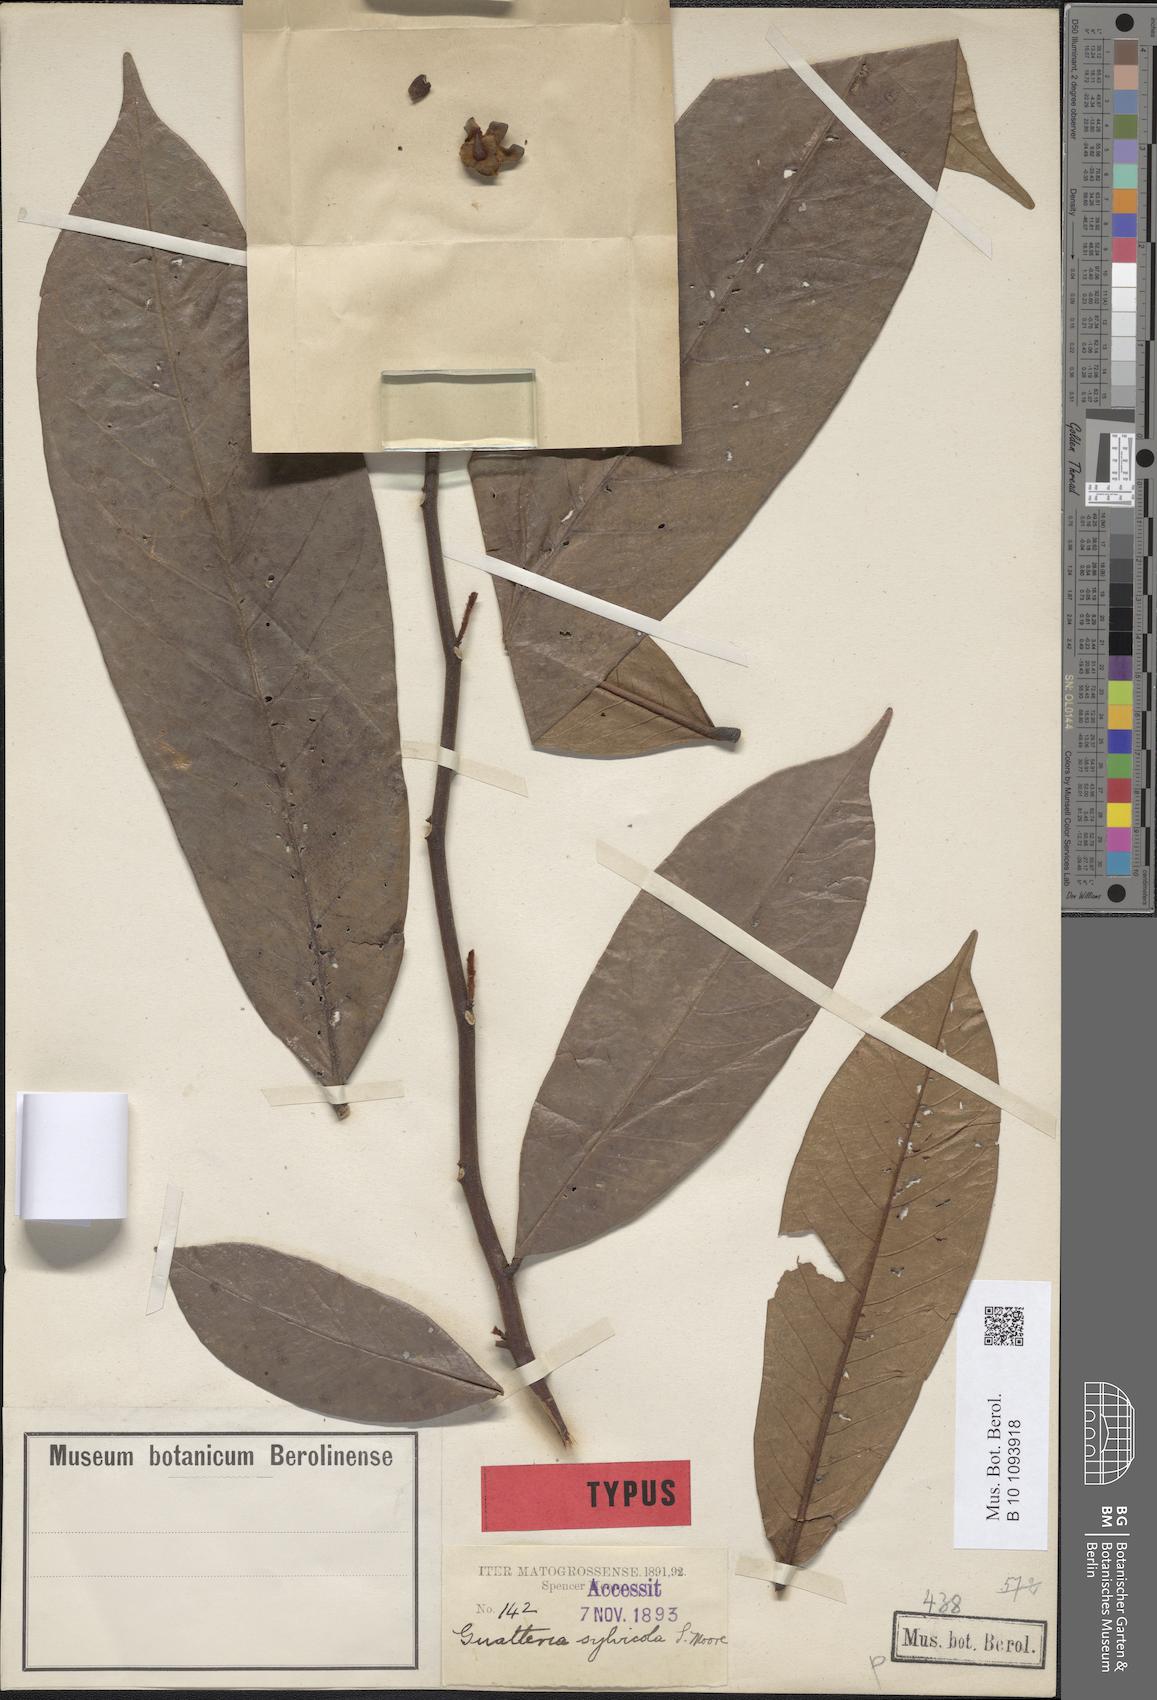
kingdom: Plantae
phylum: Tracheophyta
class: Magnoliopsida
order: Magnoliales
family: Annonaceae
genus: Guatteria
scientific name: Guatteria punctata
